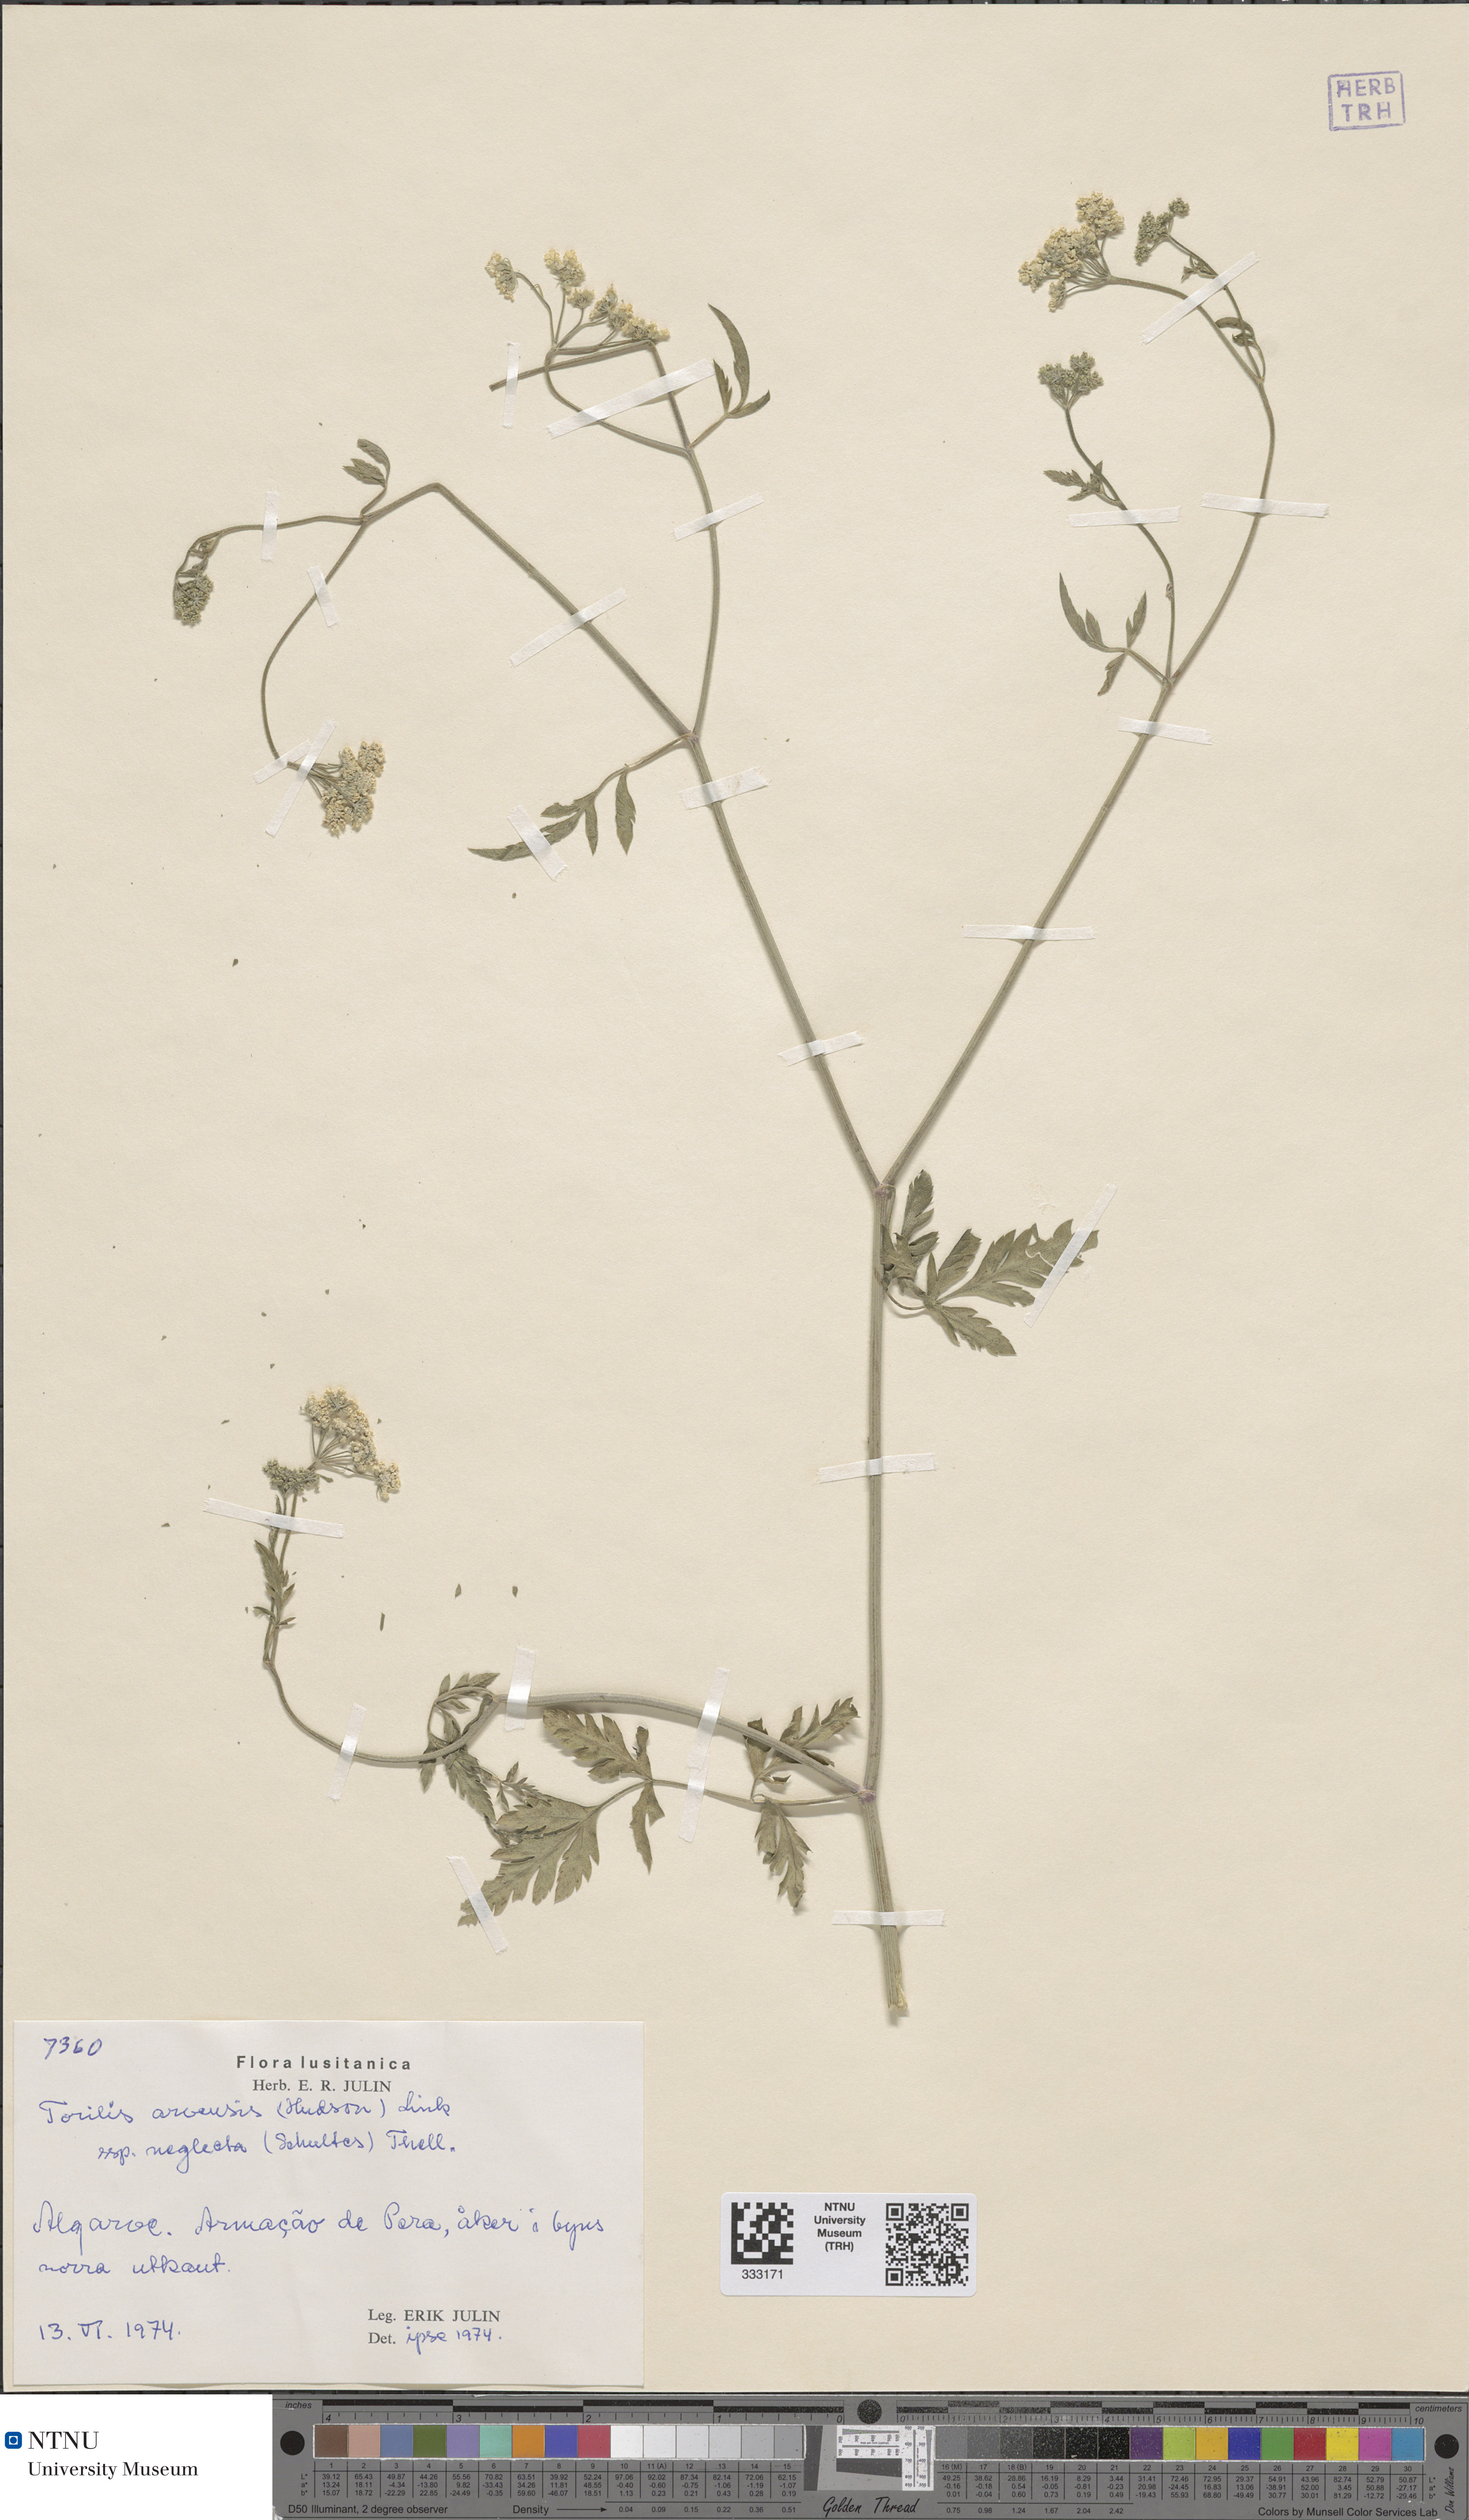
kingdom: Plantae
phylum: Tracheophyta
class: Magnoliopsida
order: Apiales
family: Apiaceae
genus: Torilis
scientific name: Torilis arvensis
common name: Spreading hedge-parsley
